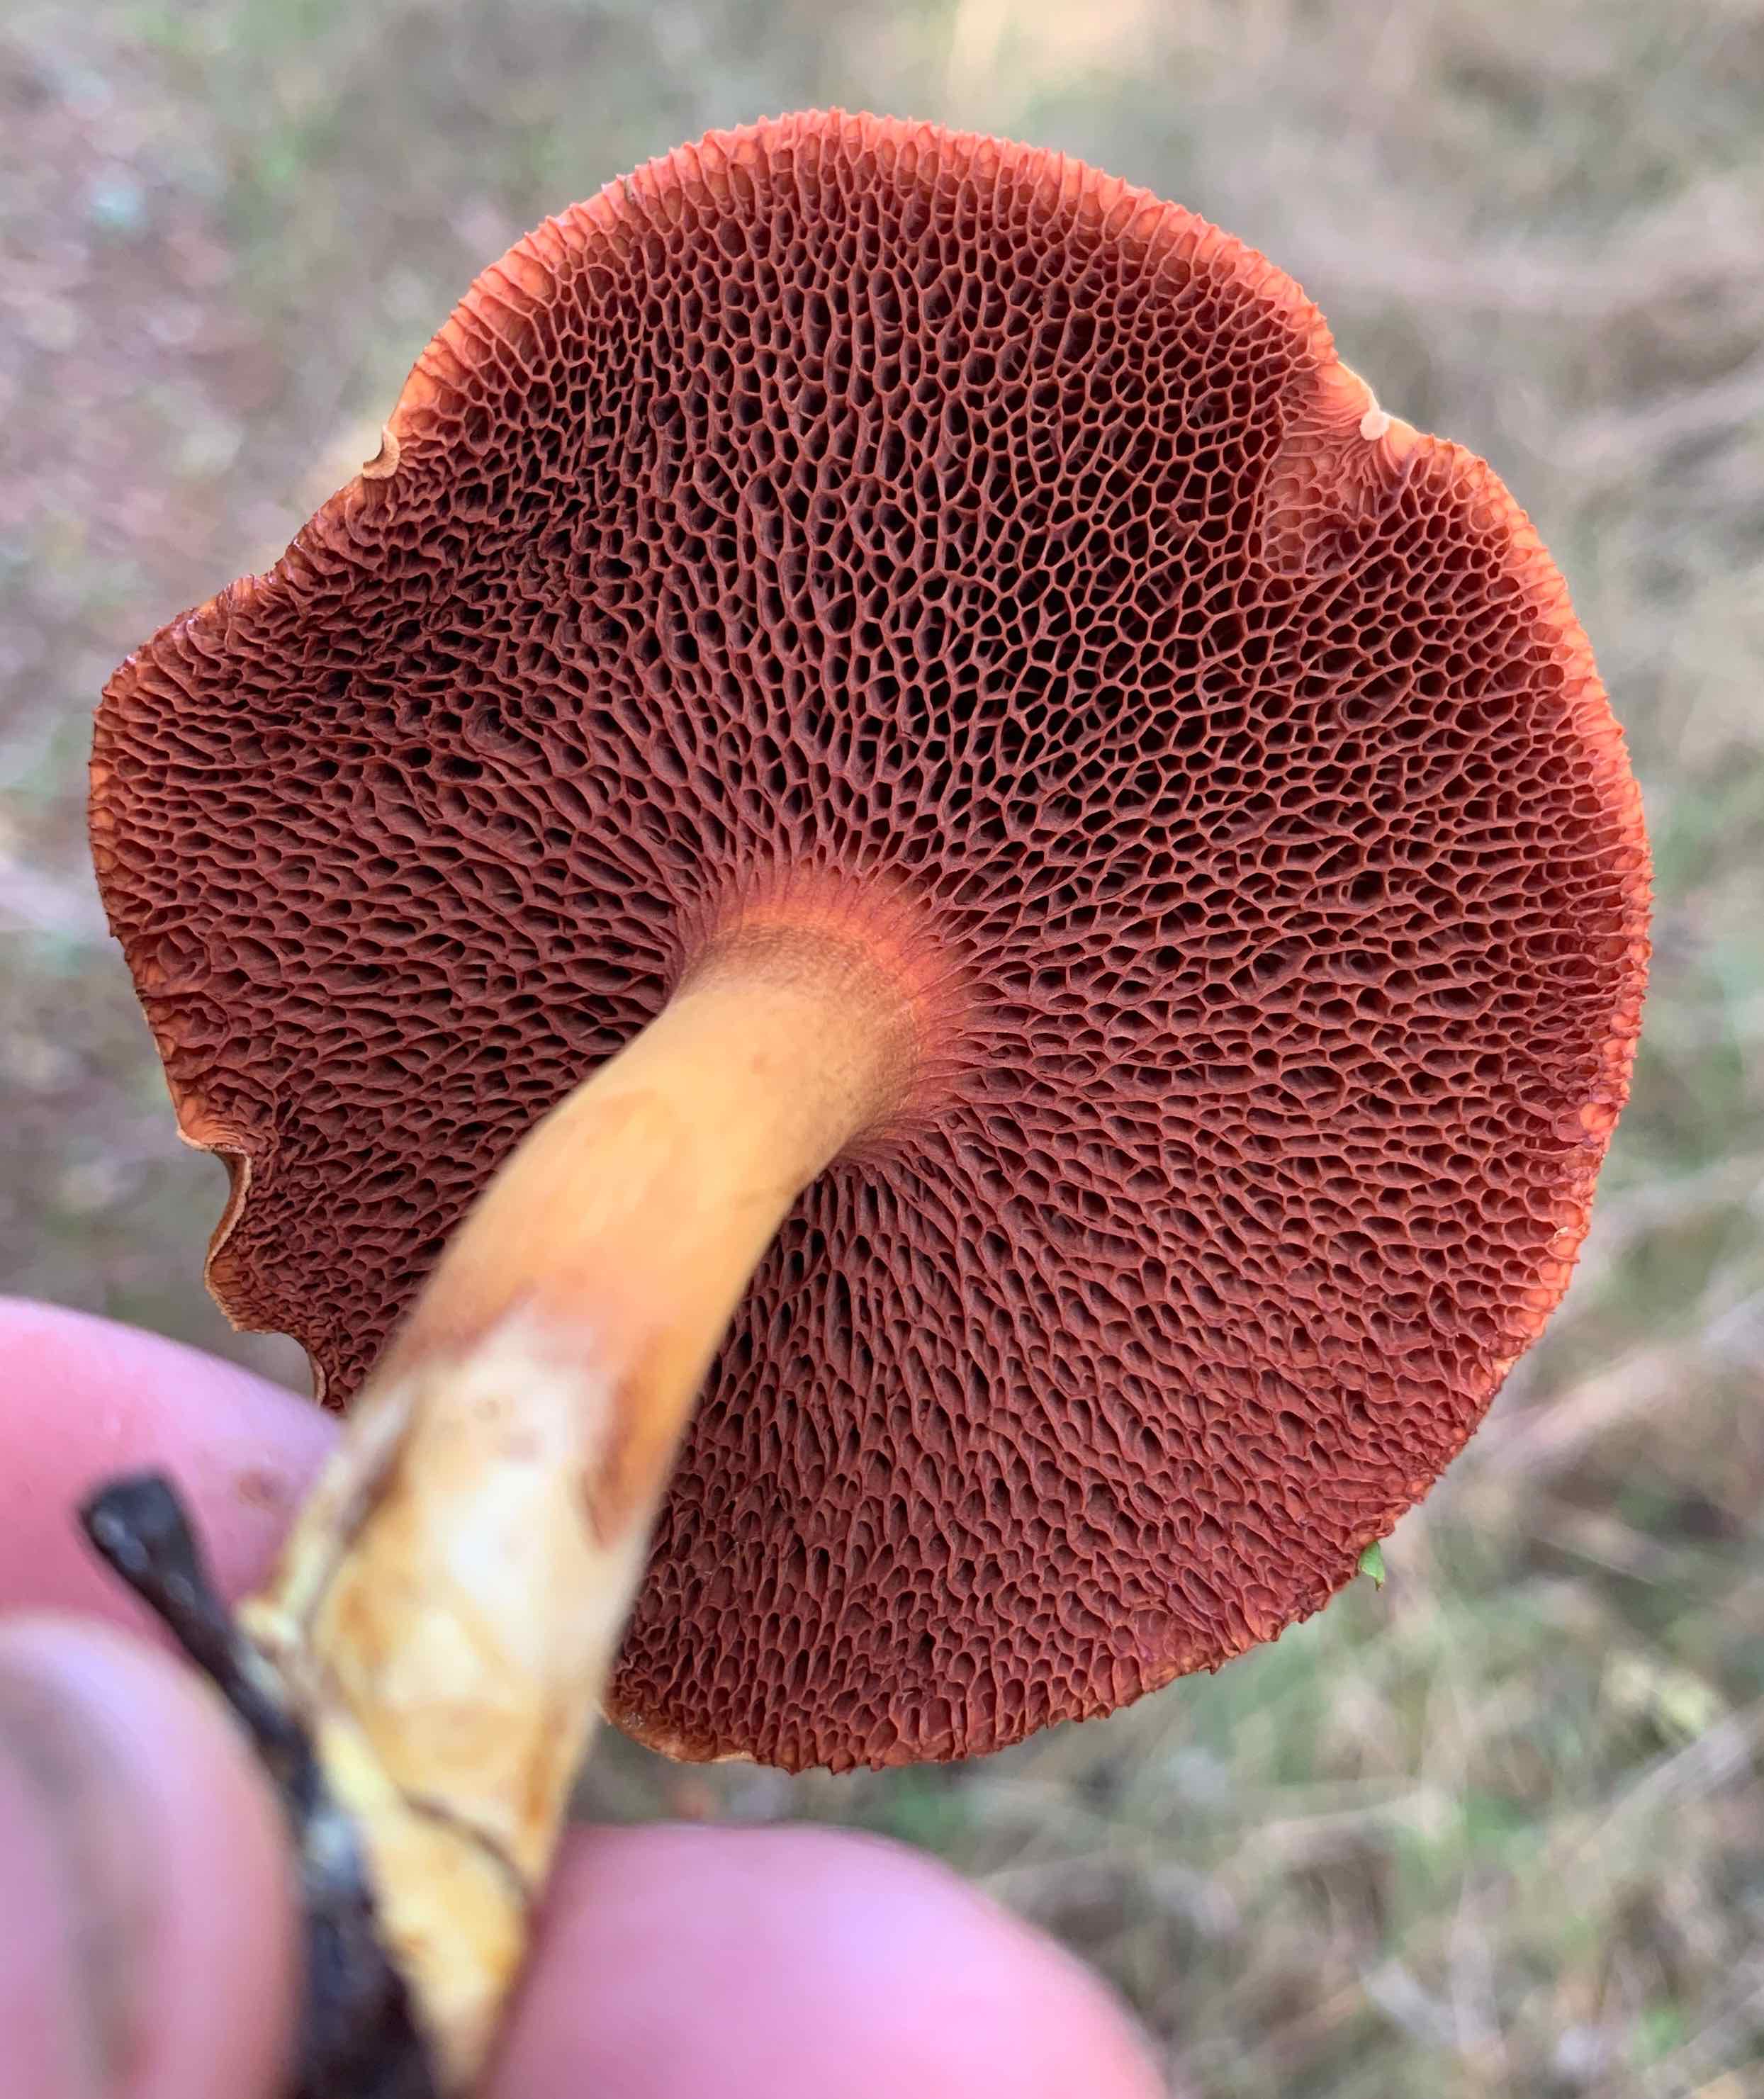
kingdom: Fungi
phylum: Basidiomycota
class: Agaricomycetes
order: Boletales
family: Boletaceae
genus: Chalciporus
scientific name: Chalciporus piperatus
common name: peberrørhat
